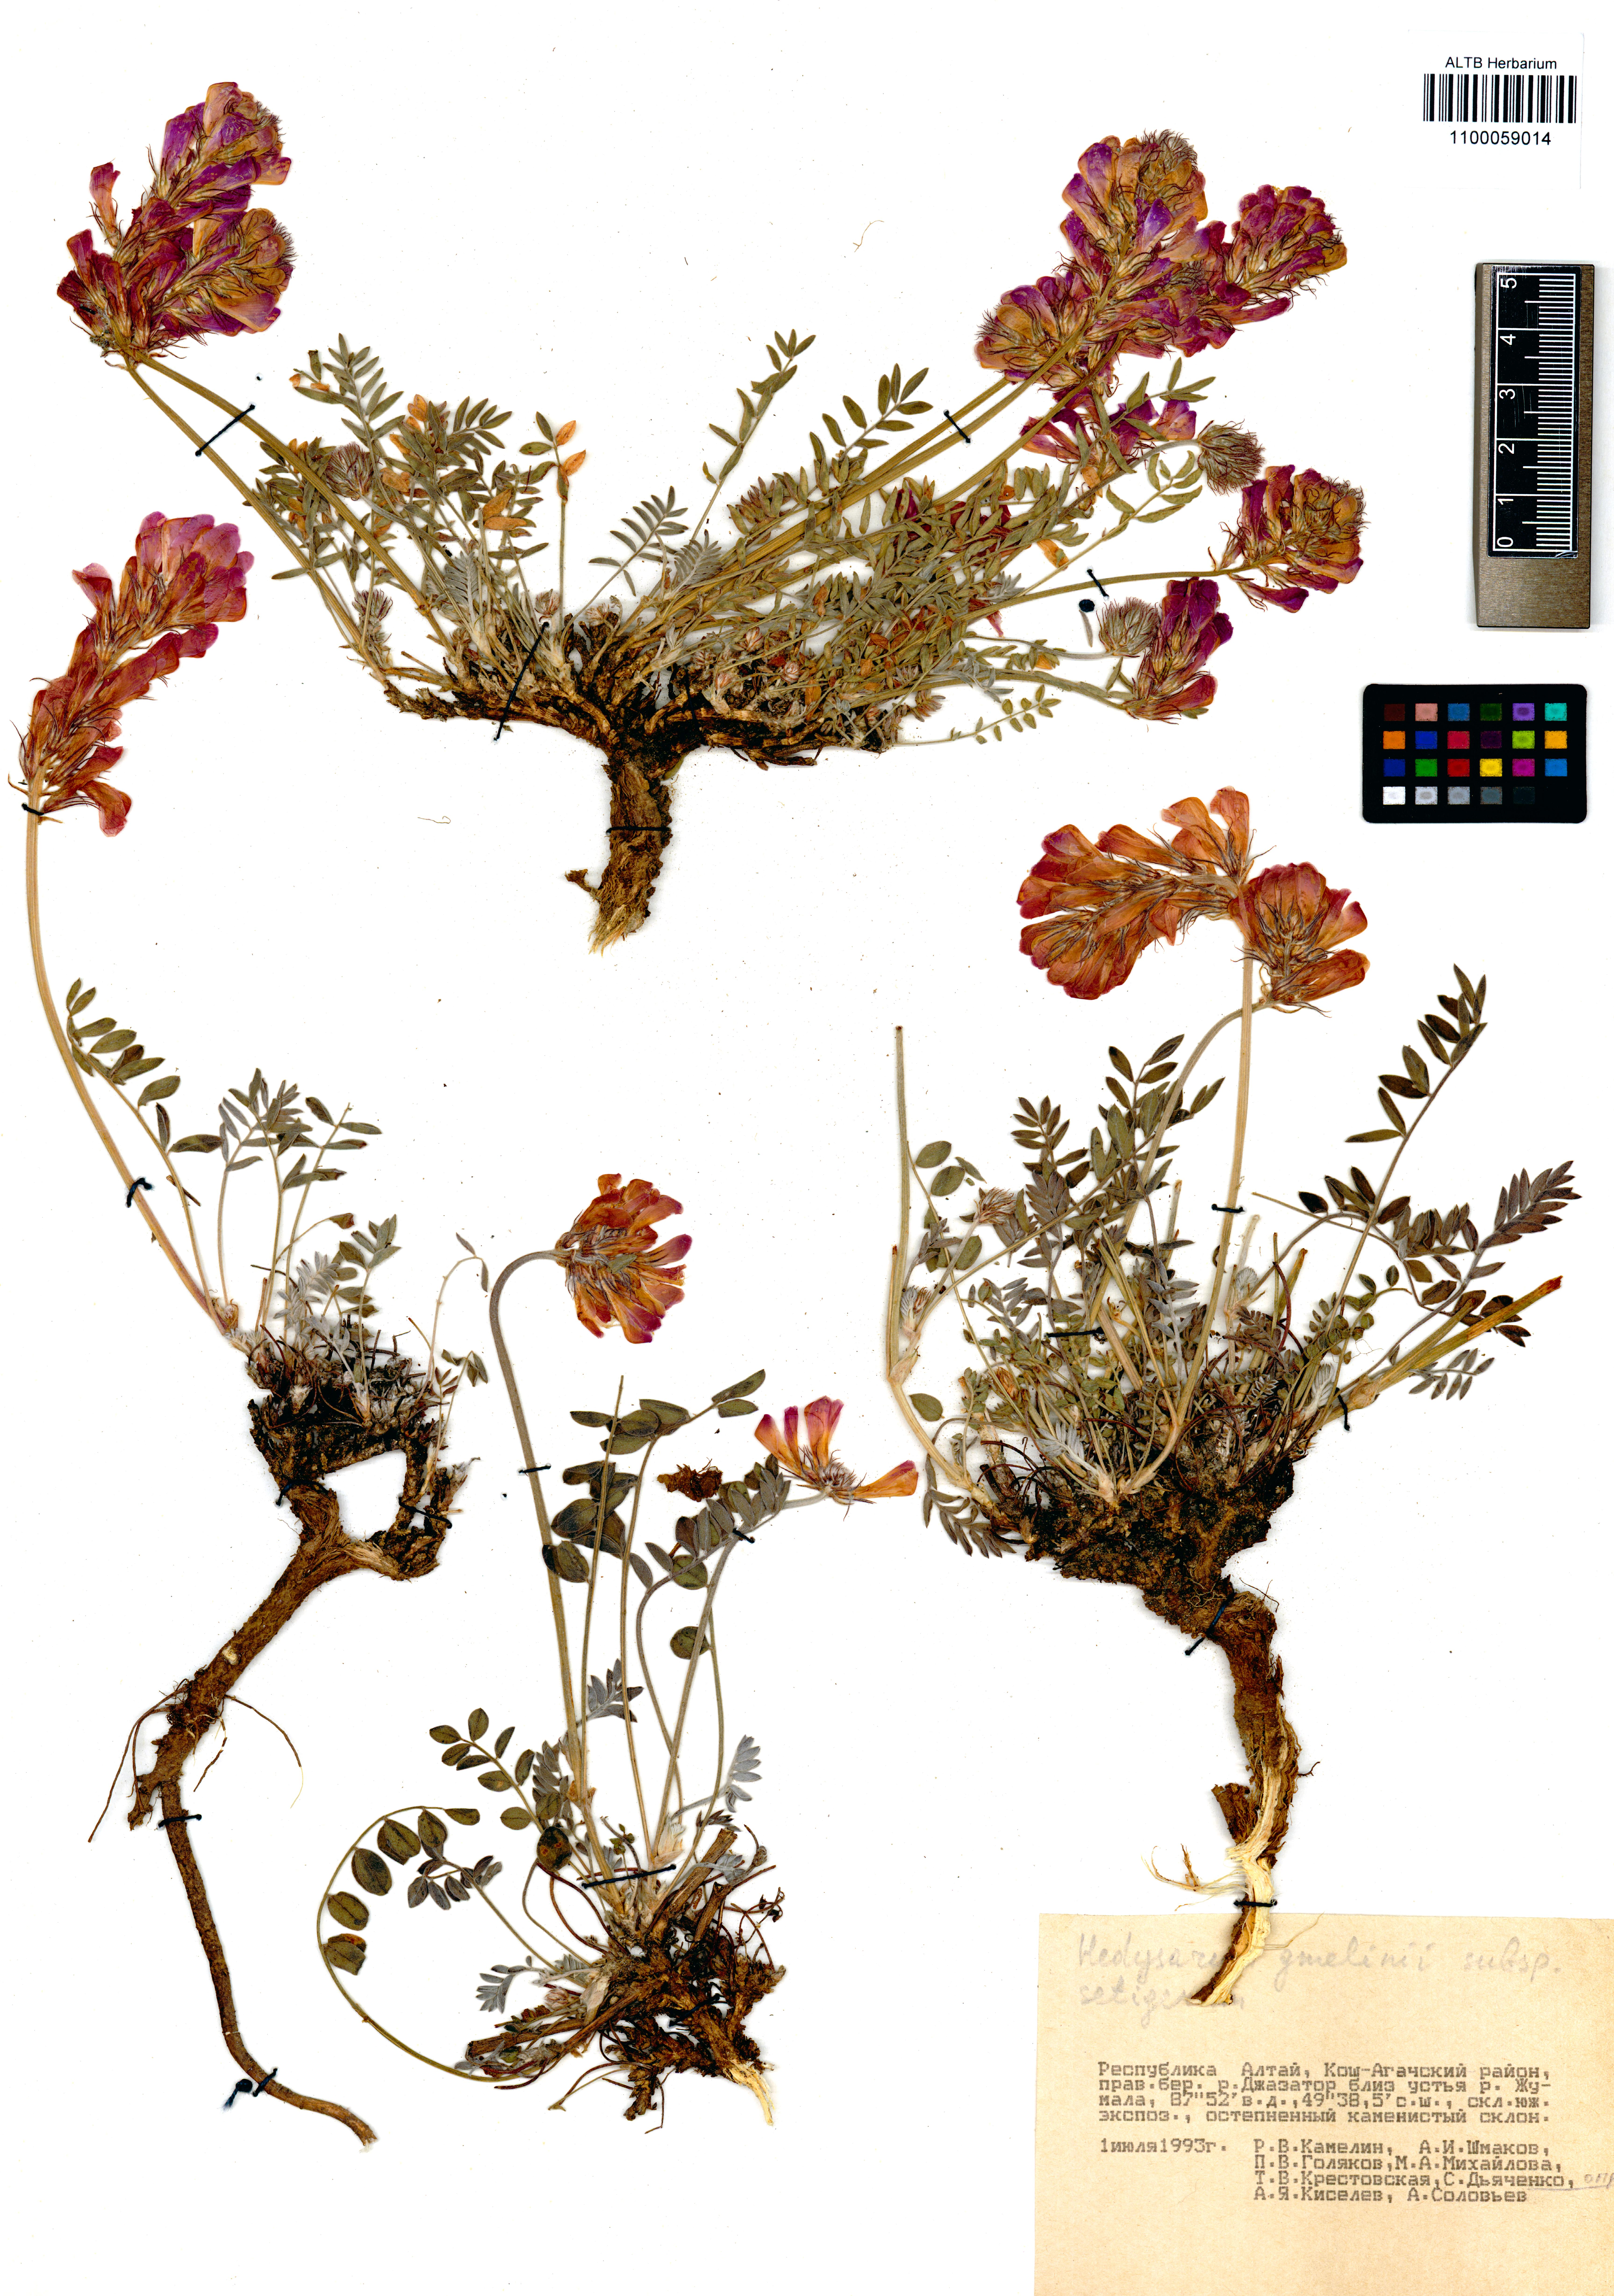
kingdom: Plantae
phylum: Tracheophyta
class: Magnoliopsida
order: Fabales
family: Fabaceae
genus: Hedysarum
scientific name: Hedysarum setigerum
